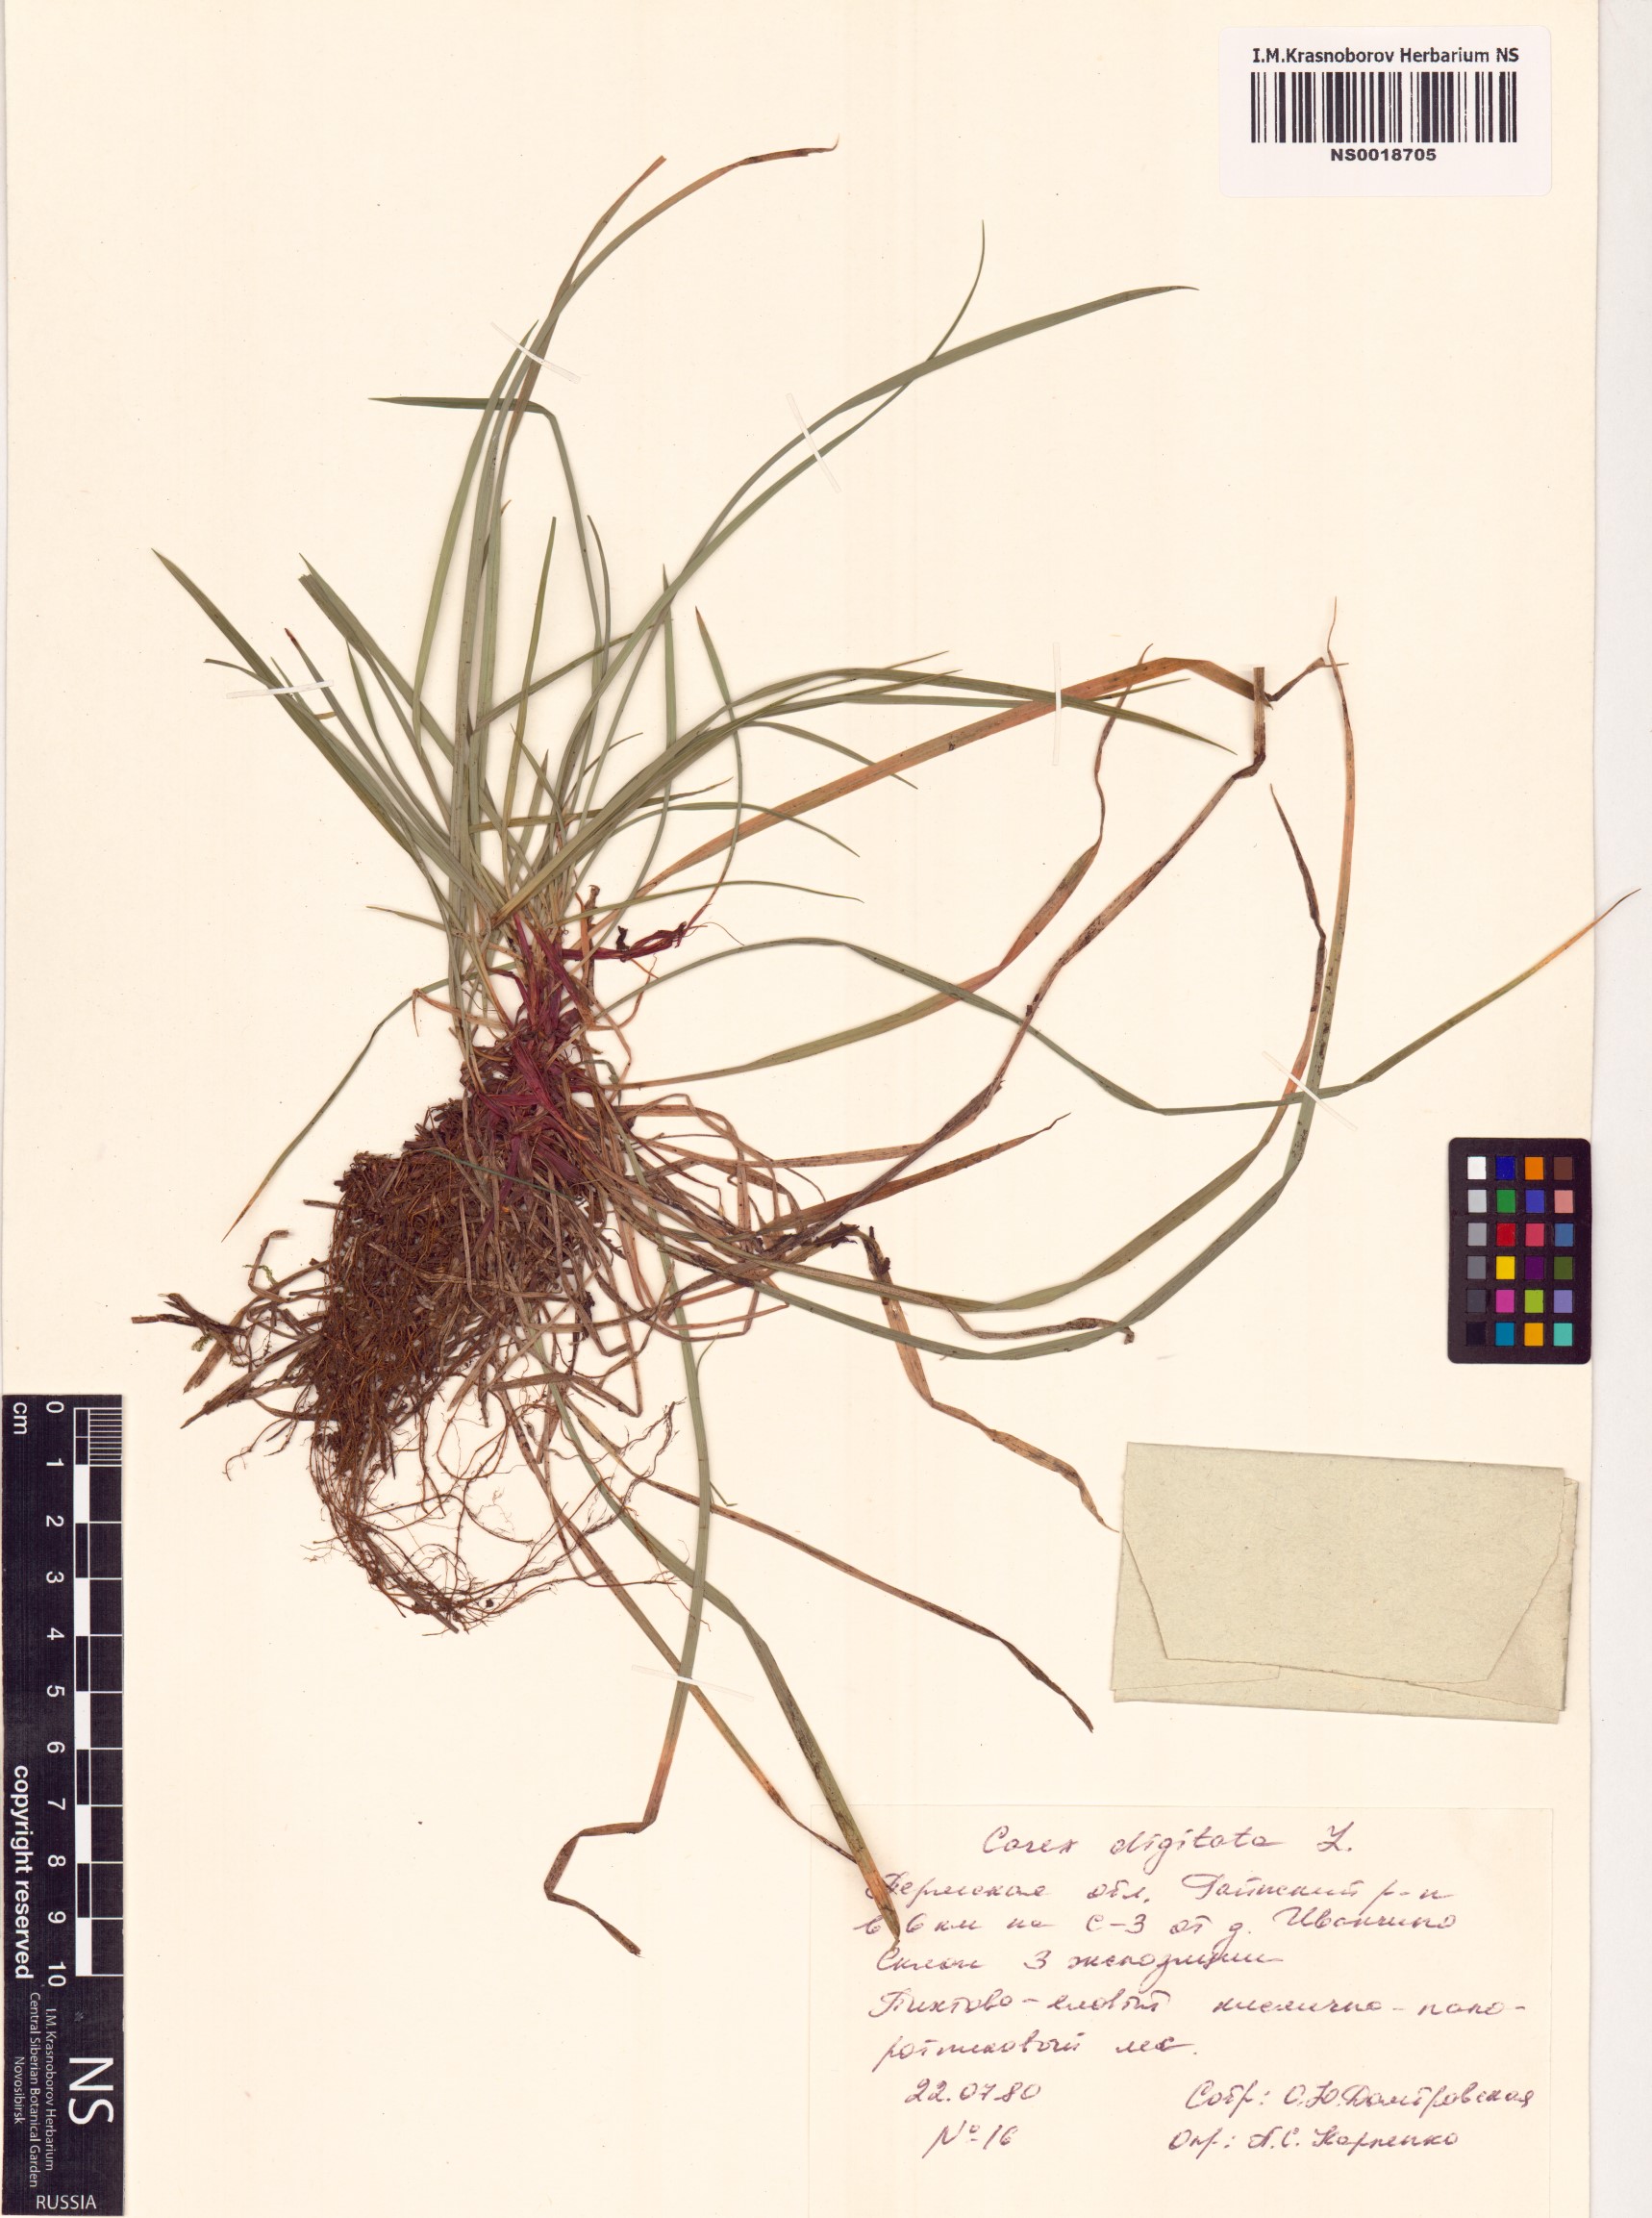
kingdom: Plantae
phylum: Tracheophyta
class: Liliopsida
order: Poales
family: Cyperaceae
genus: Carex
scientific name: Carex digitata
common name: Fingered sedge
